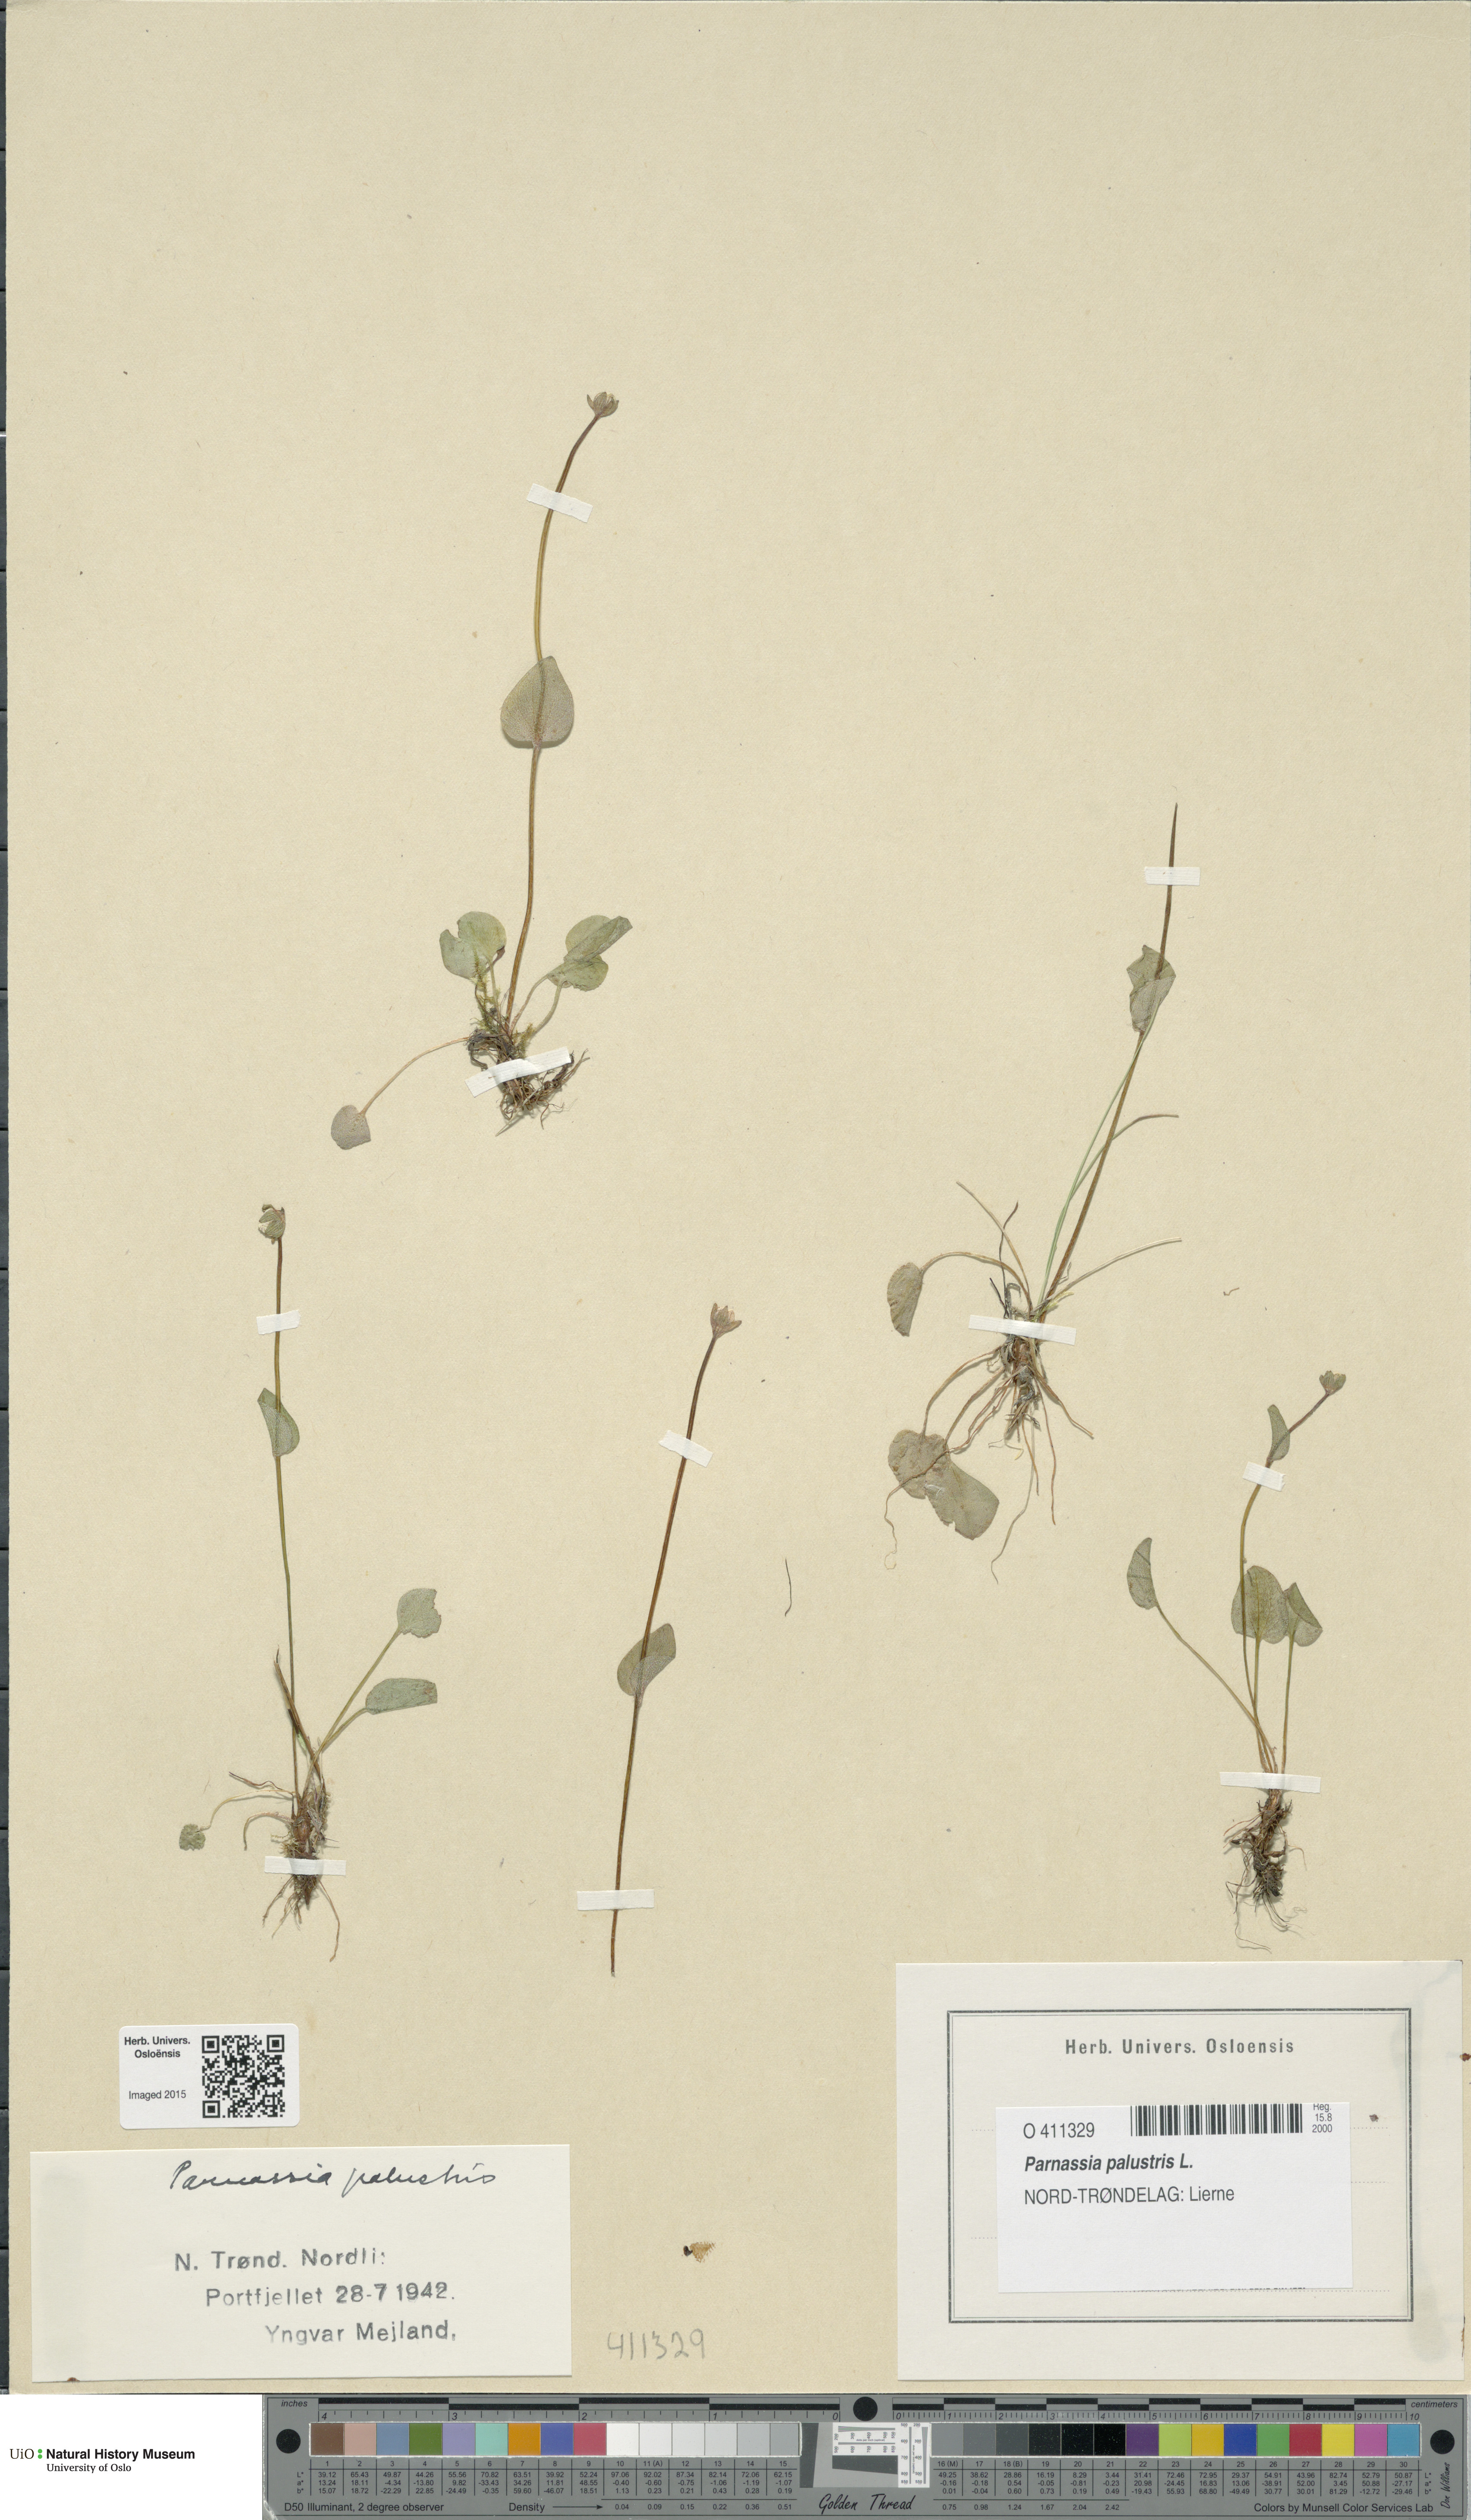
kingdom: Plantae
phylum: Tracheophyta
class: Magnoliopsida
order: Celastrales
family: Parnassiaceae
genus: Parnassia
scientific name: Parnassia palustris
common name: Grass-of-parnassus
